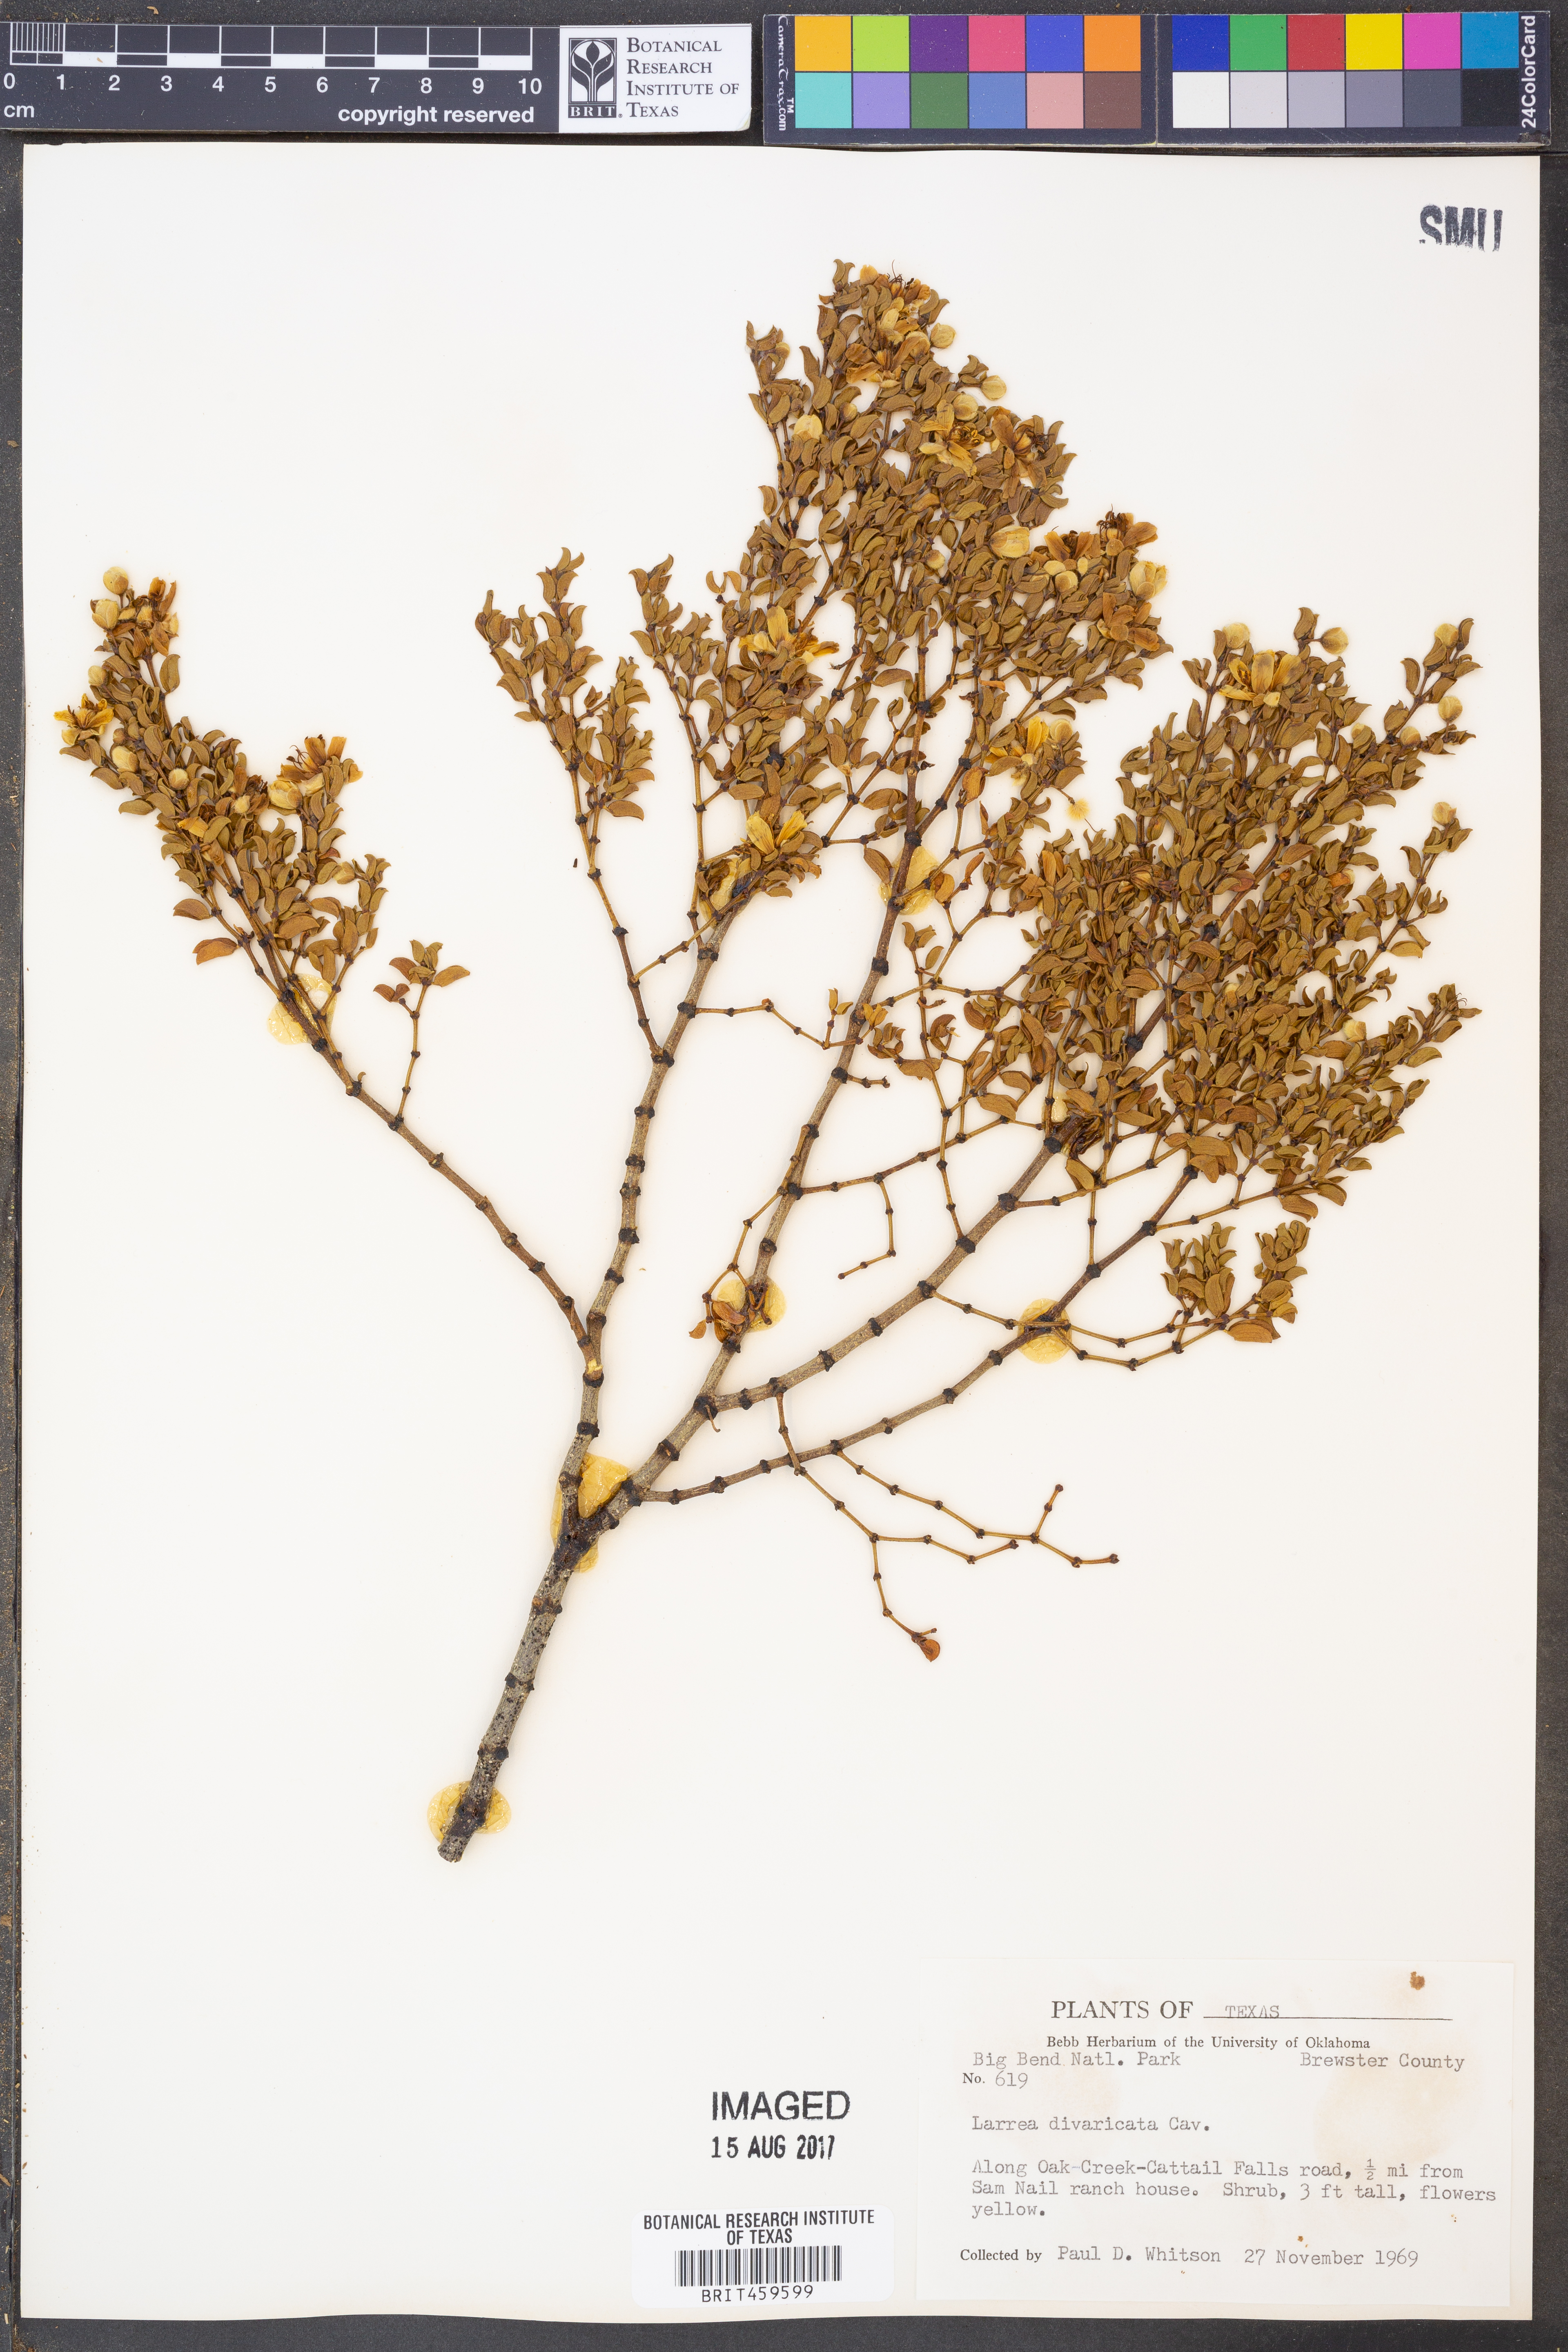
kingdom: Plantae
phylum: Tracheophyta
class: Magnoliopsida
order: Zygophyllales
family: Zygophyllaceae
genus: Larrea
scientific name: Larrea divaricata
